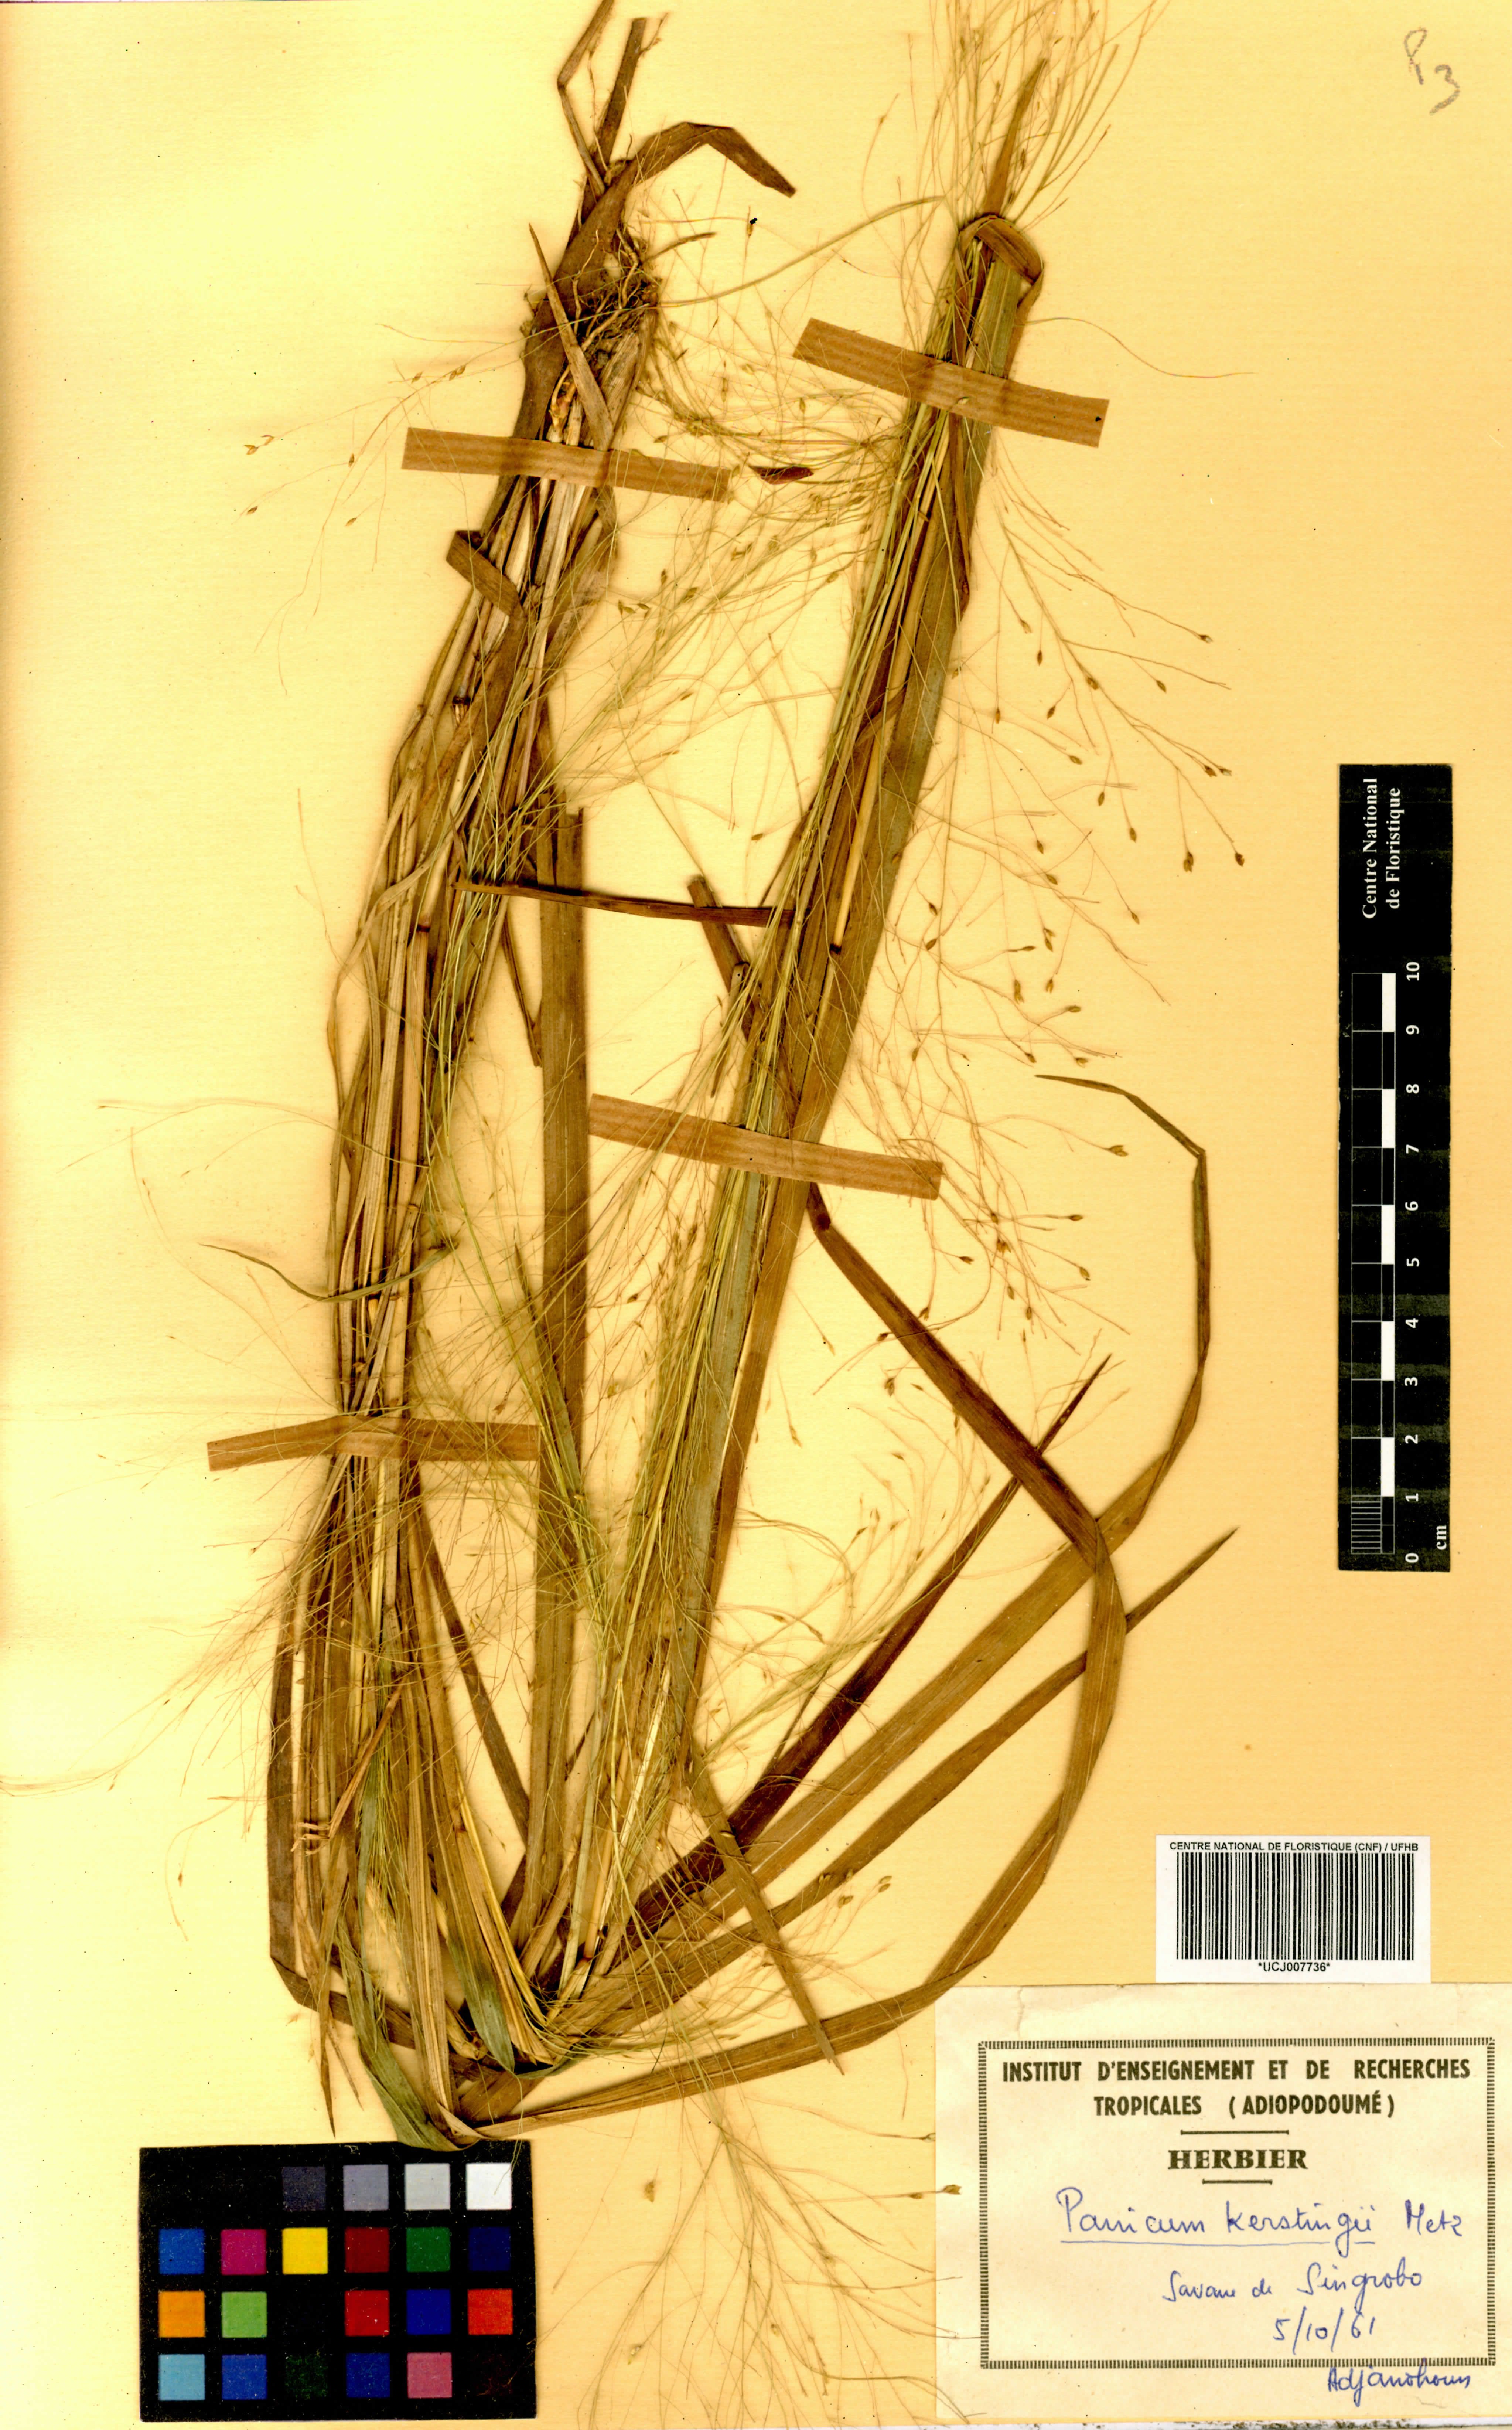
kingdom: Plantae
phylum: Tracheophyta
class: Liliopsida
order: Poales
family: Poaceae
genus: Panicum
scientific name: Panicum pansum
